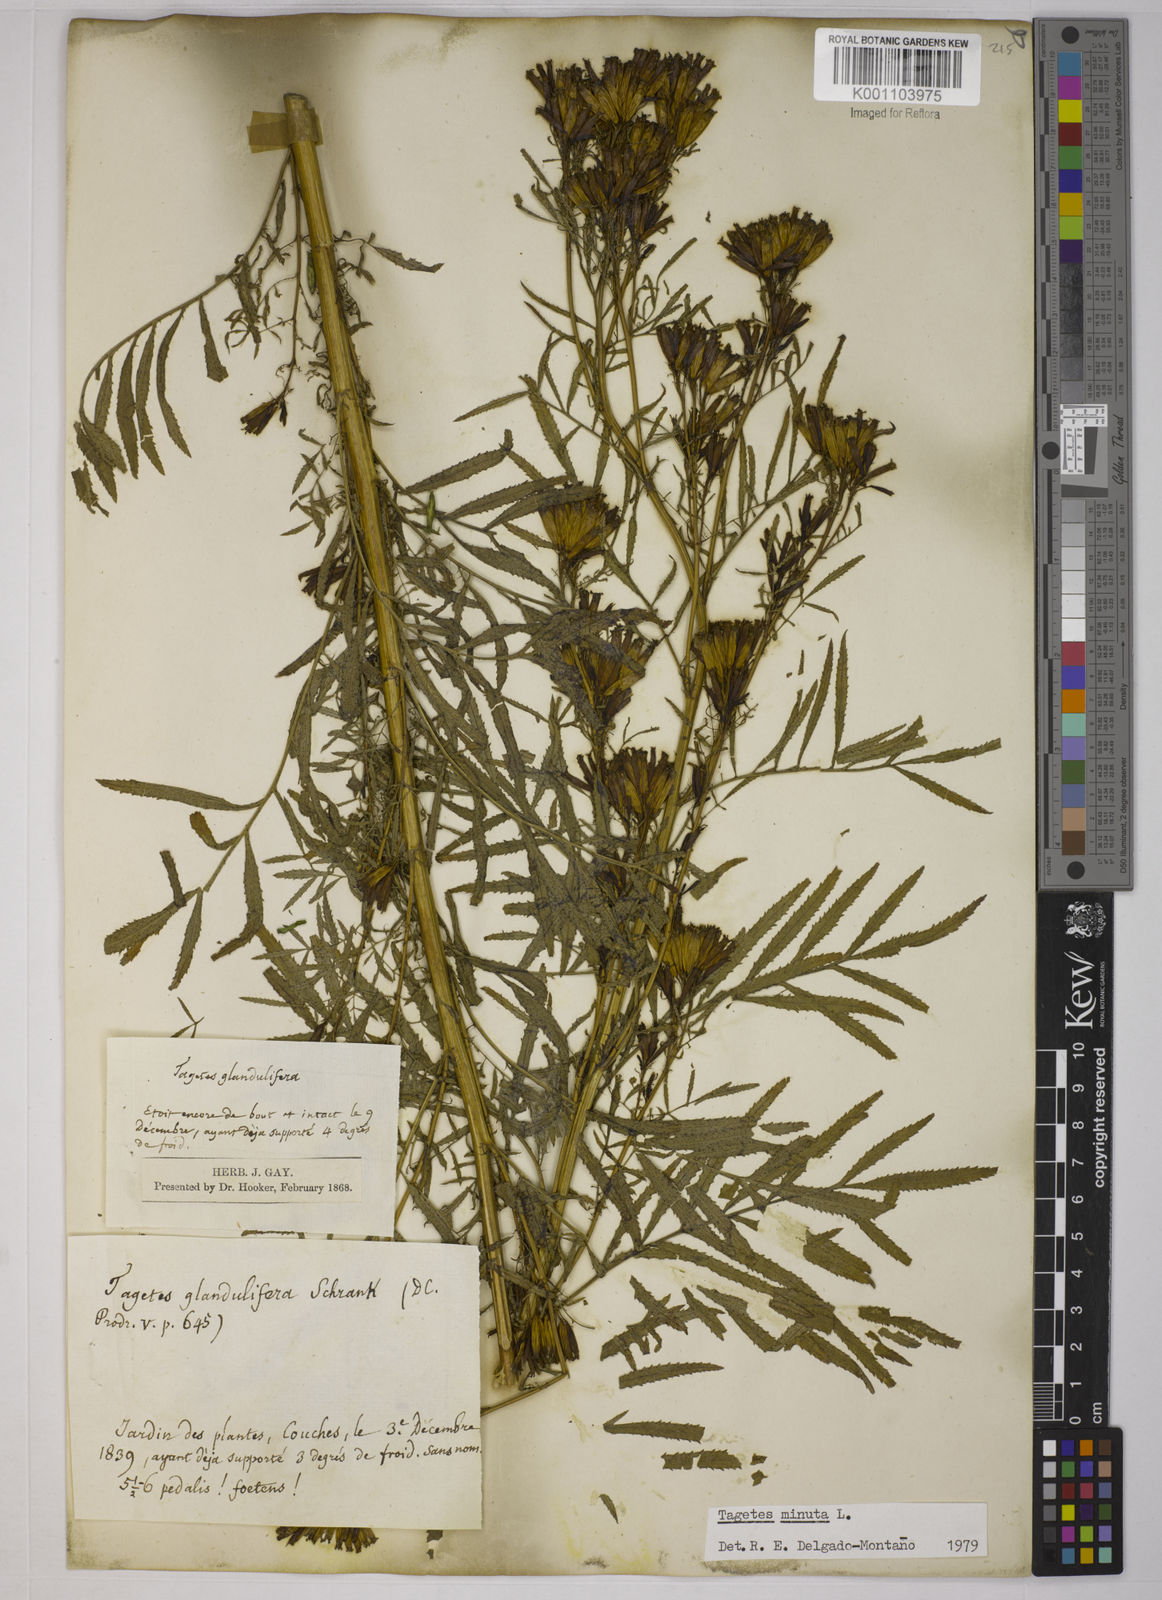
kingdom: Plantae
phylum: Tracheophyta
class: Magnoliopsida
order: Asterales
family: Asteraceae
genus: Tagetes
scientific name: Tagetes minuta
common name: Muster john henry
